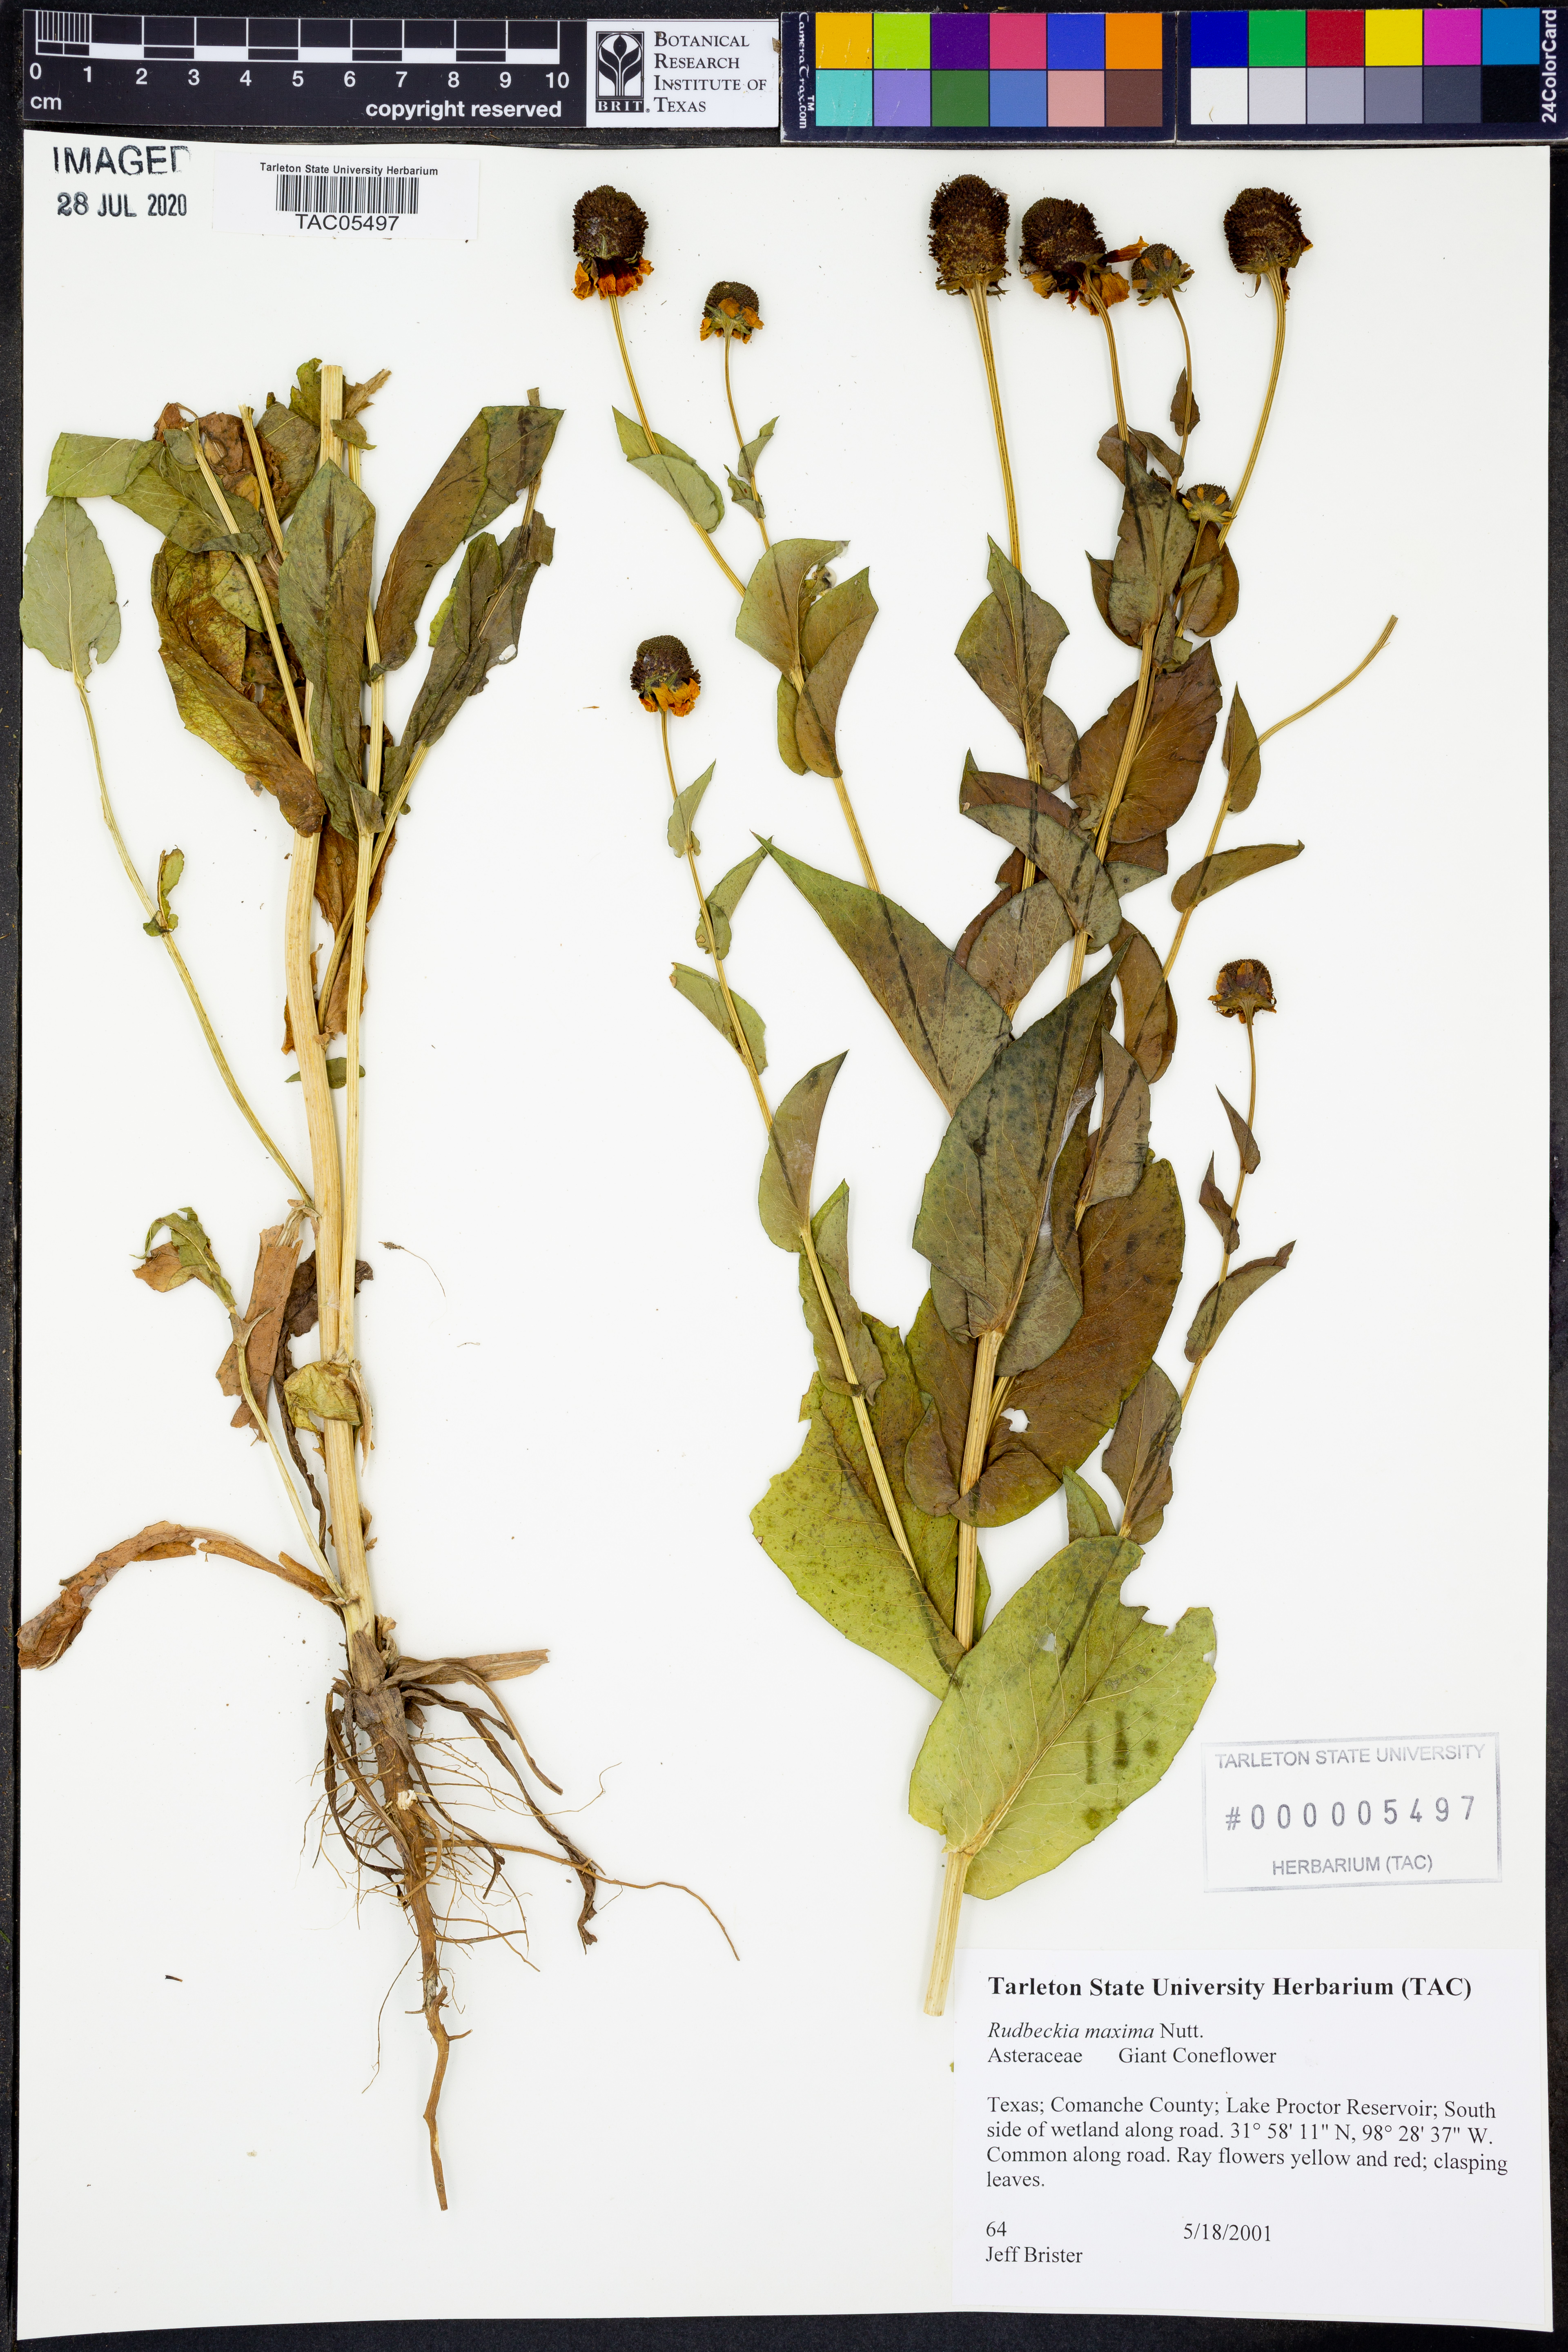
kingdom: Plantae
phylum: Tracheophyta
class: Magnoliopsida
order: Asterales
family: Asteraceae
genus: Rudbeckia
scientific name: Rudbeckia maxima
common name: Cabbage coneflower
